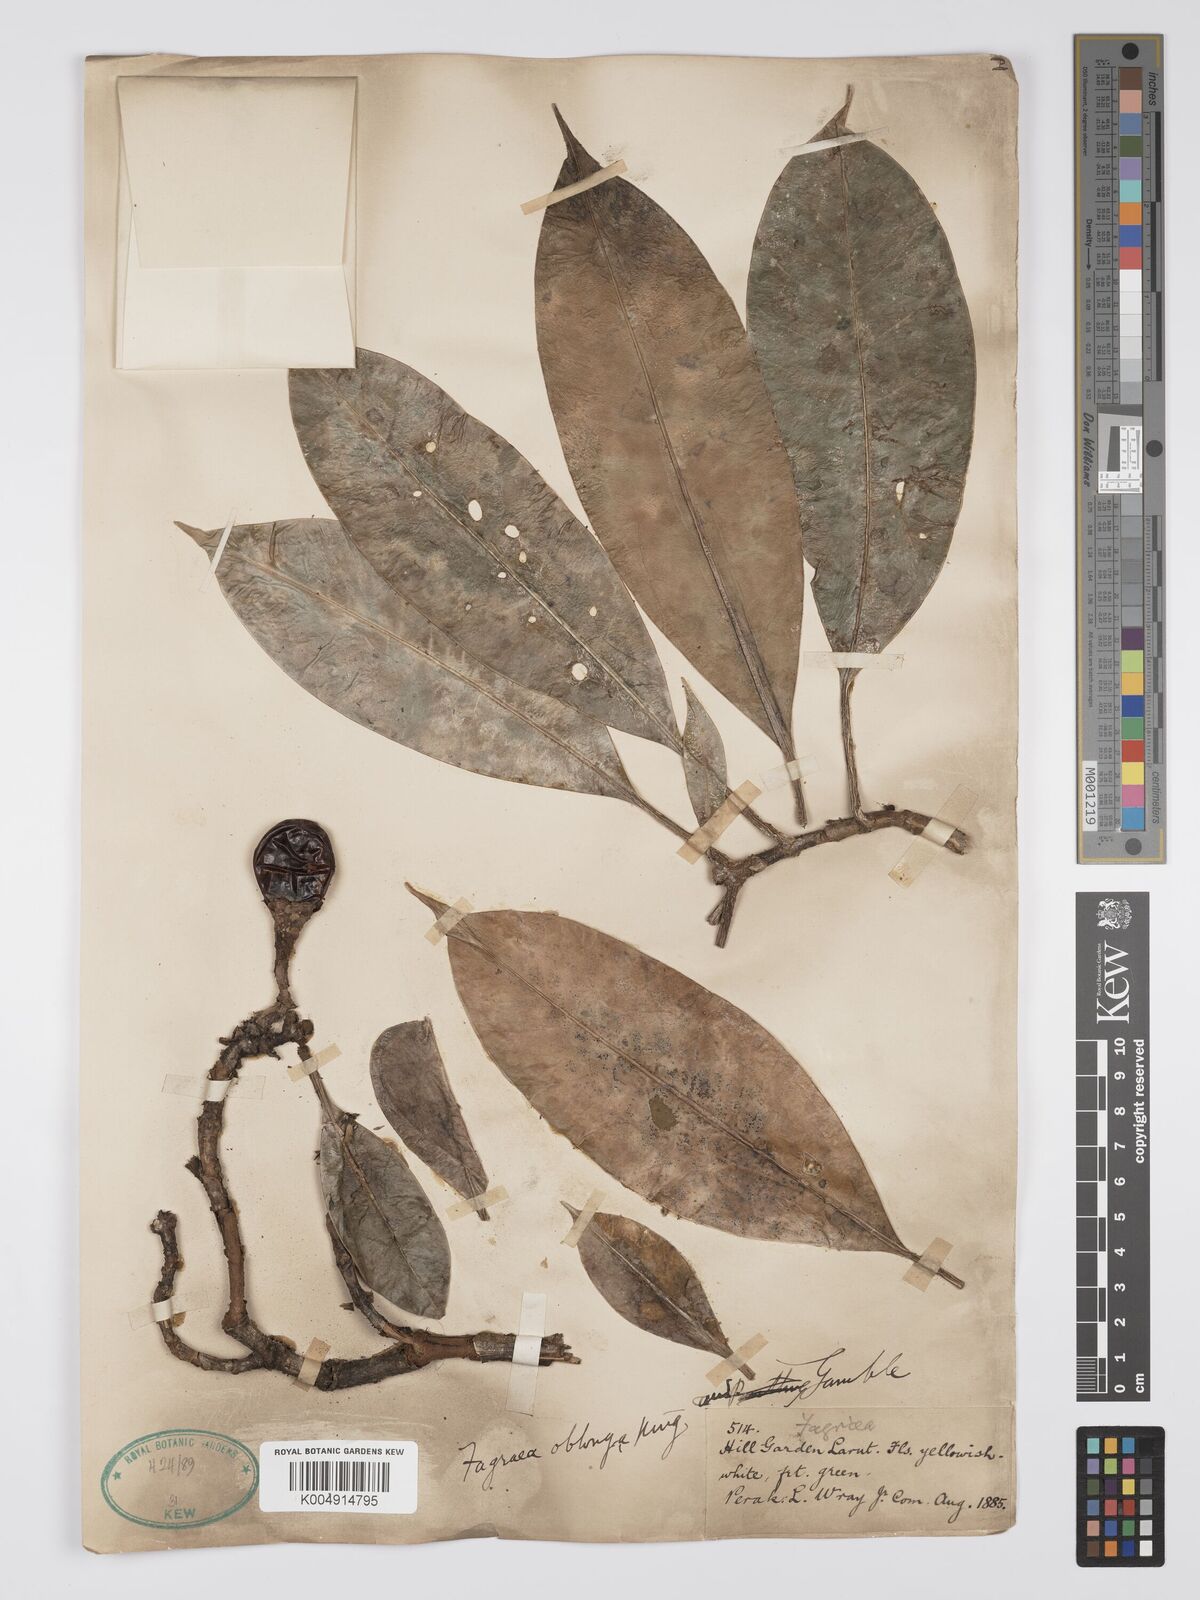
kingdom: Plantae
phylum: Tracheophyta
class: Magnoliopsida
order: Gentianales
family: Gentianaceae
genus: Fagraea
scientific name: Fagraea oblonga
